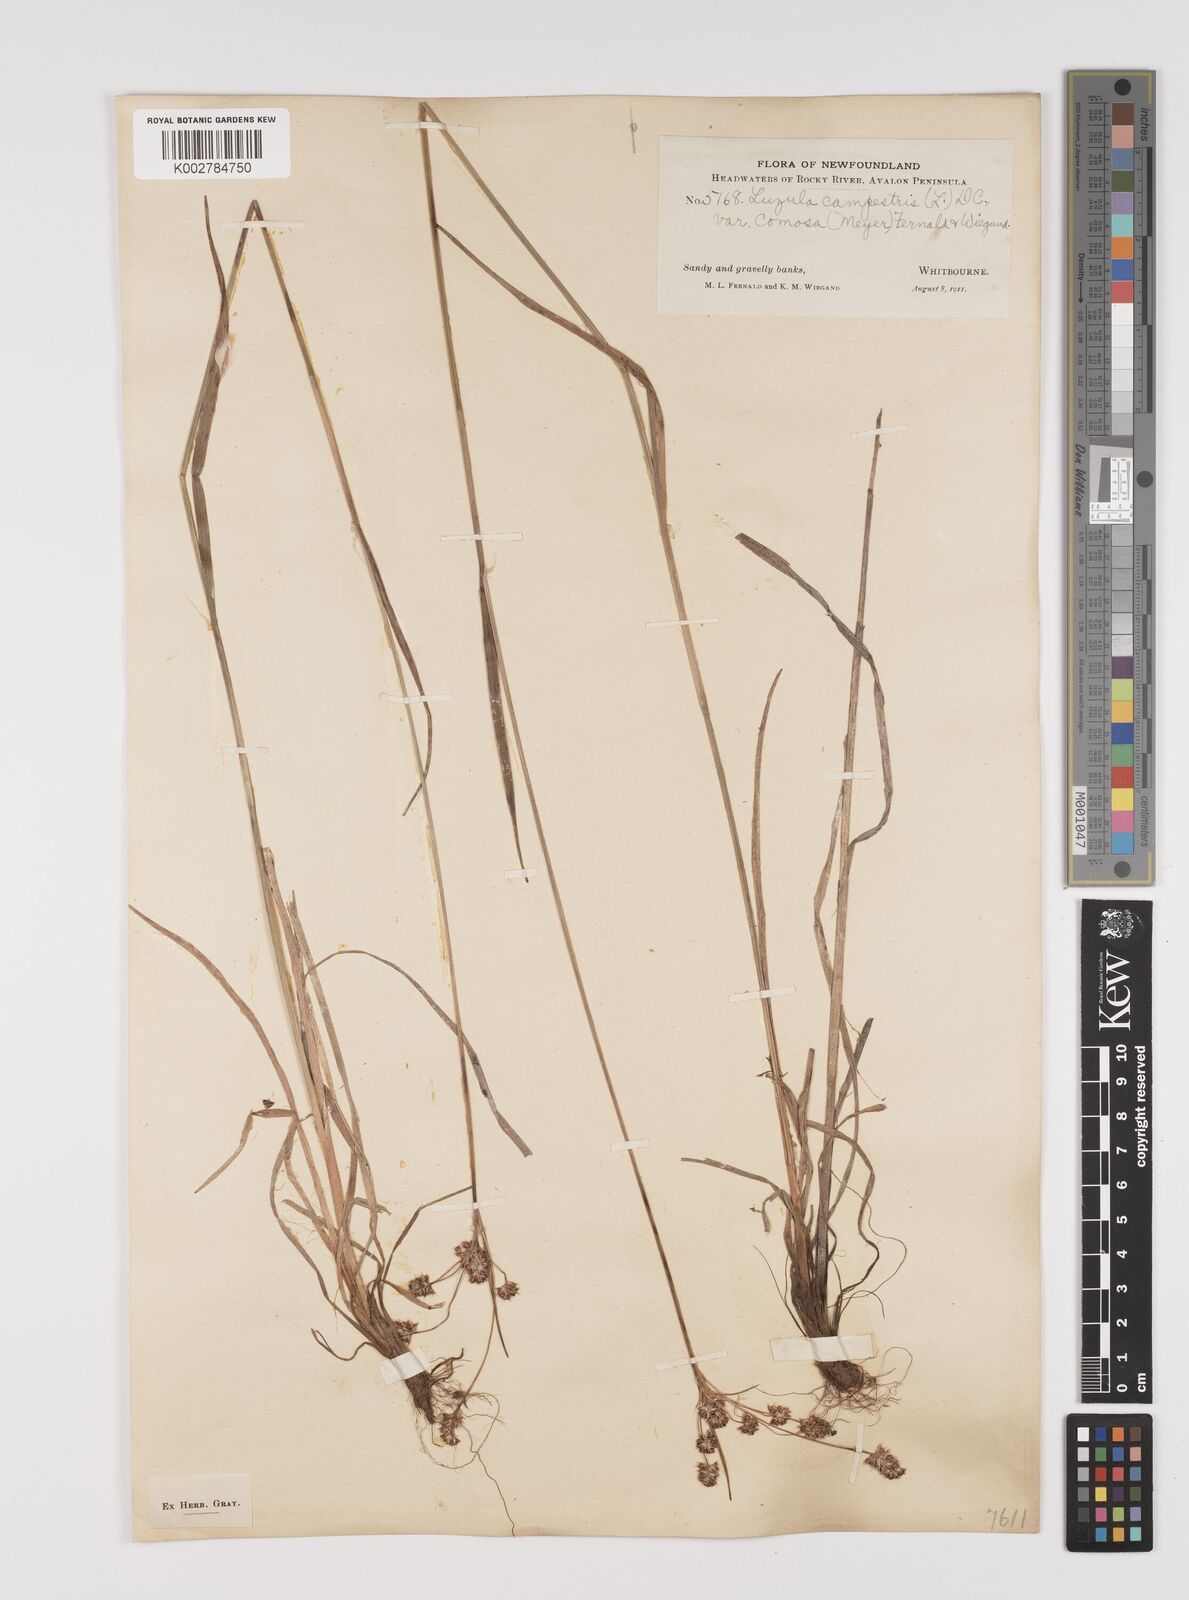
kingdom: Plantae
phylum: Tracheophyta
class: Liliopsida
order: Poales
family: Juncaceae
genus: Luzula
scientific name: Luzula
